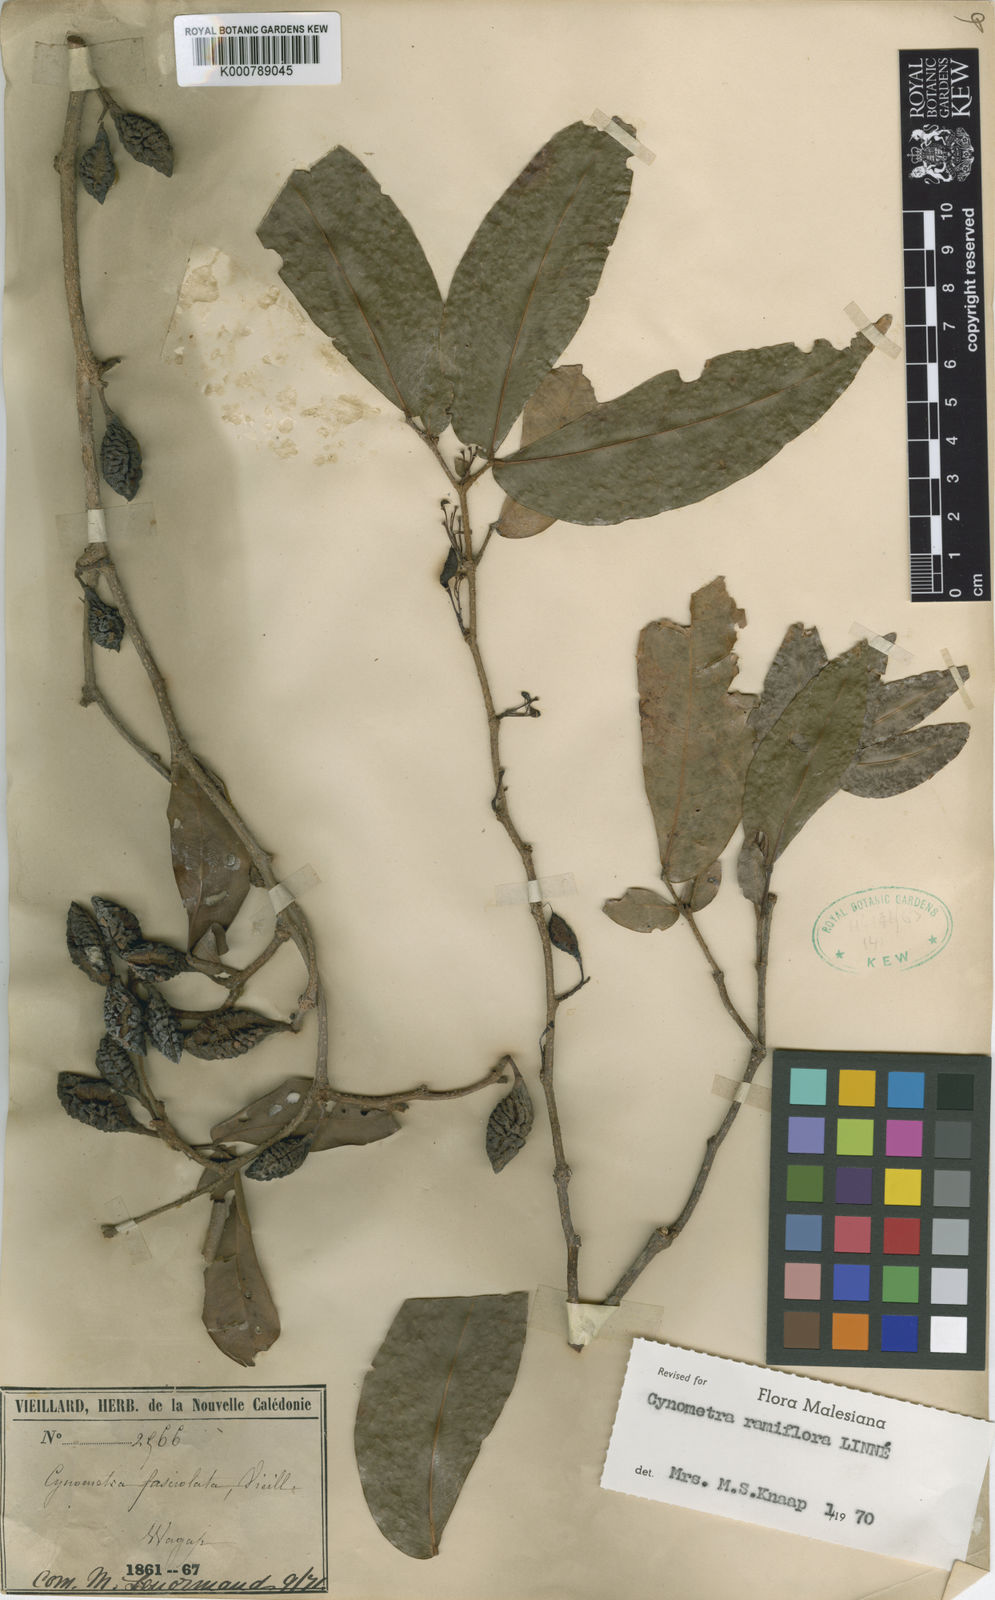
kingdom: Plantae
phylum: Tracheophyta
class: Magnoliopsida
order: Fabales
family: Fabaceae
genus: Cynometra
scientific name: Cynometra ramiflora
